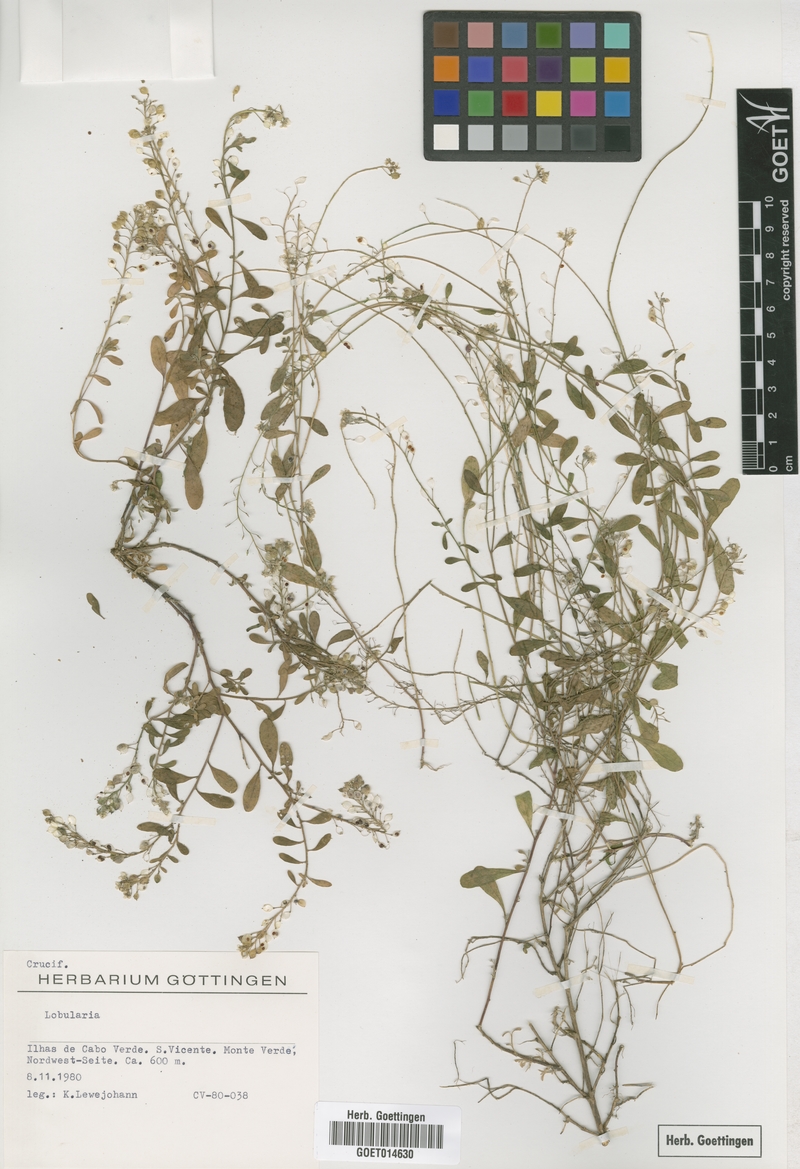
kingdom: Plantae
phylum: Tracheophyta
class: Magnoliopsida
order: Brassicales
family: Brassicaceae
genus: Lobularia
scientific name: Lobularia
